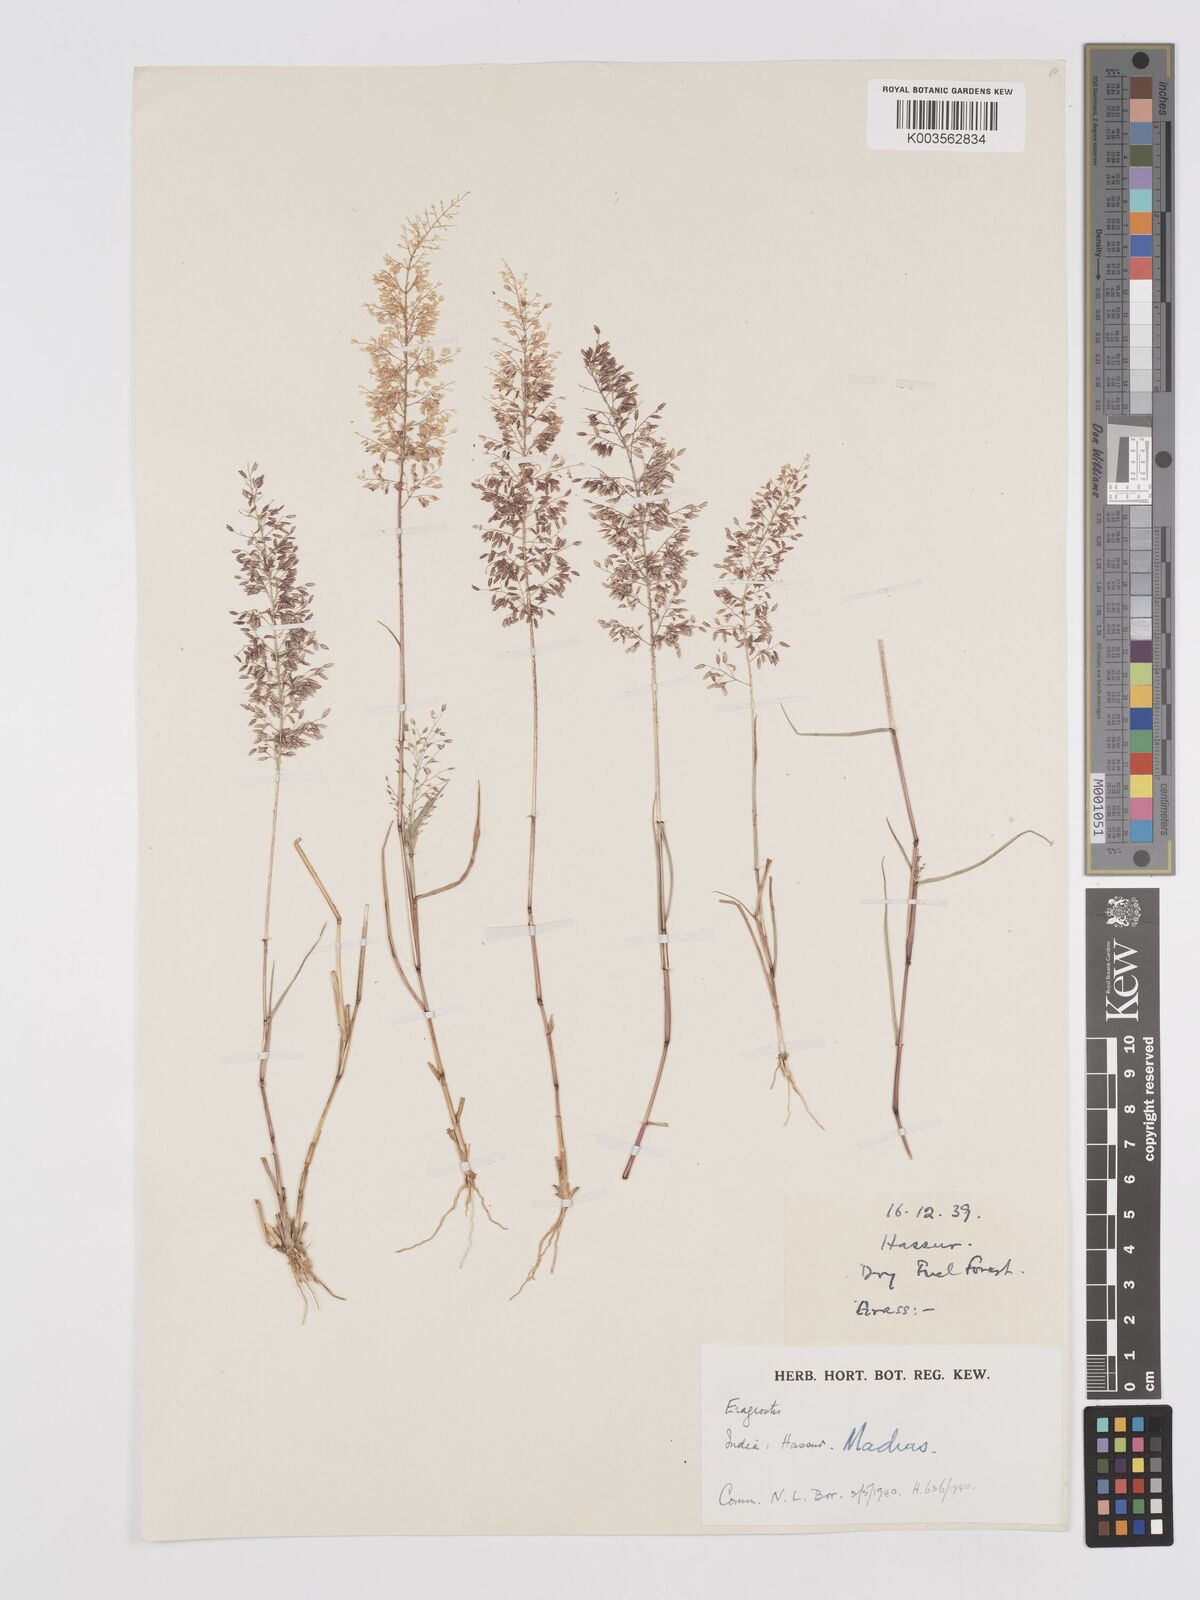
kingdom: Plantae
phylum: Tracheophyta
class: Liliopsida
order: Poales
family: Poaceae
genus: Eragrostis
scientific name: Eragrostis viscosa
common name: Sticky love grass
